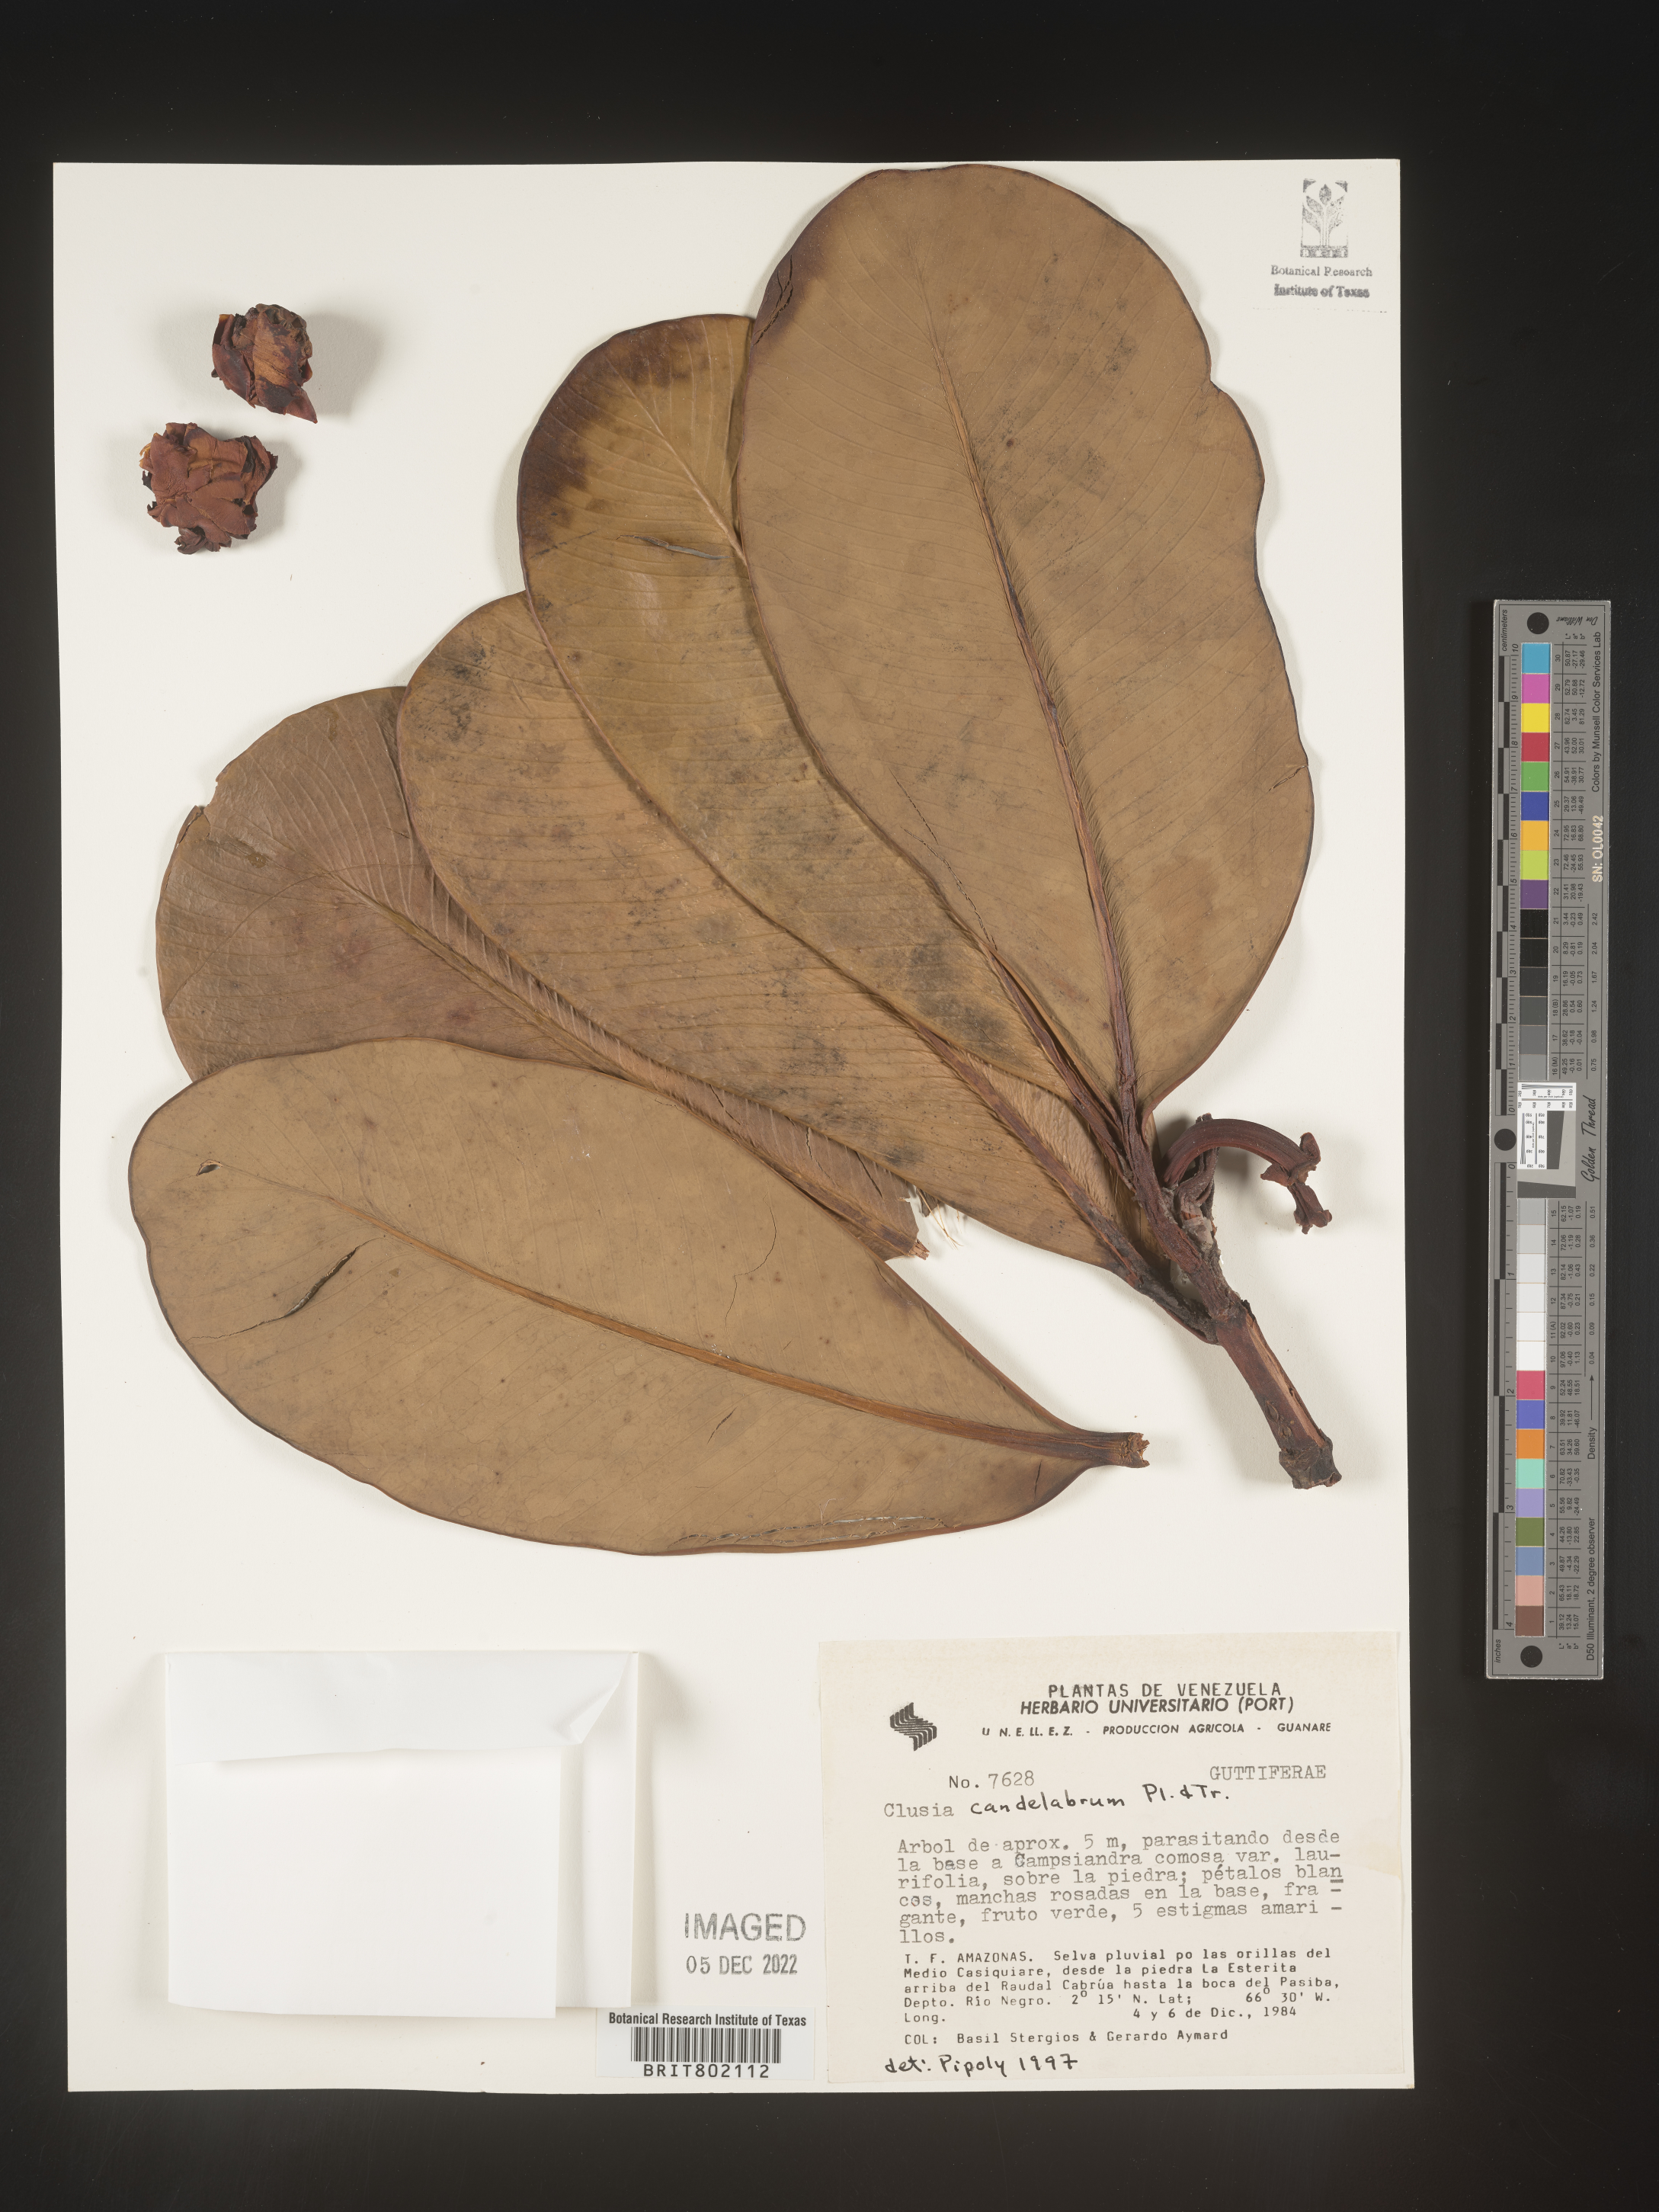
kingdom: Plantae
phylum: Tracheophyta
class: Magnoliopsida
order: Malpighiales
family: Clusiaceae
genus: Clusia
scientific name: Clusia candelabrum
